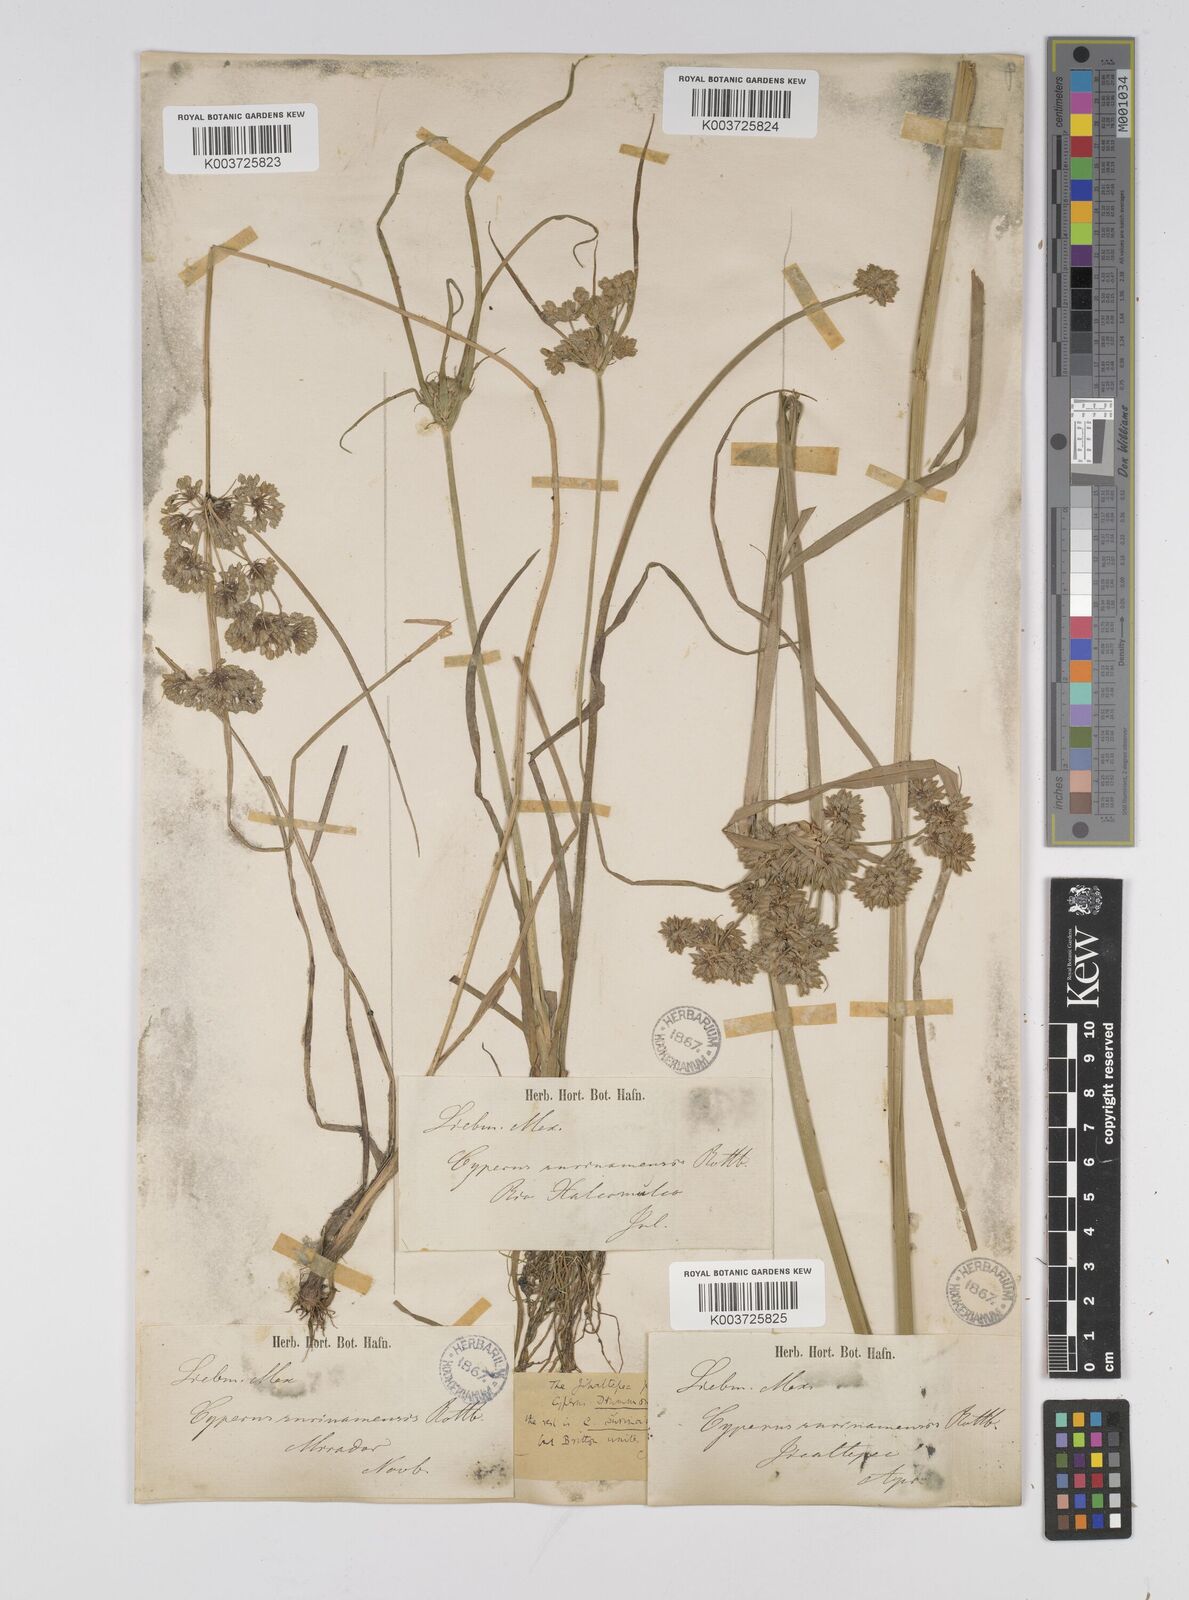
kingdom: Plantae
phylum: Tracheophyta
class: Liliopsida
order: Poales
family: Cyperaceae
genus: Cyperus
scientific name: Cyperus drummondii
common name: Green flat sedge
